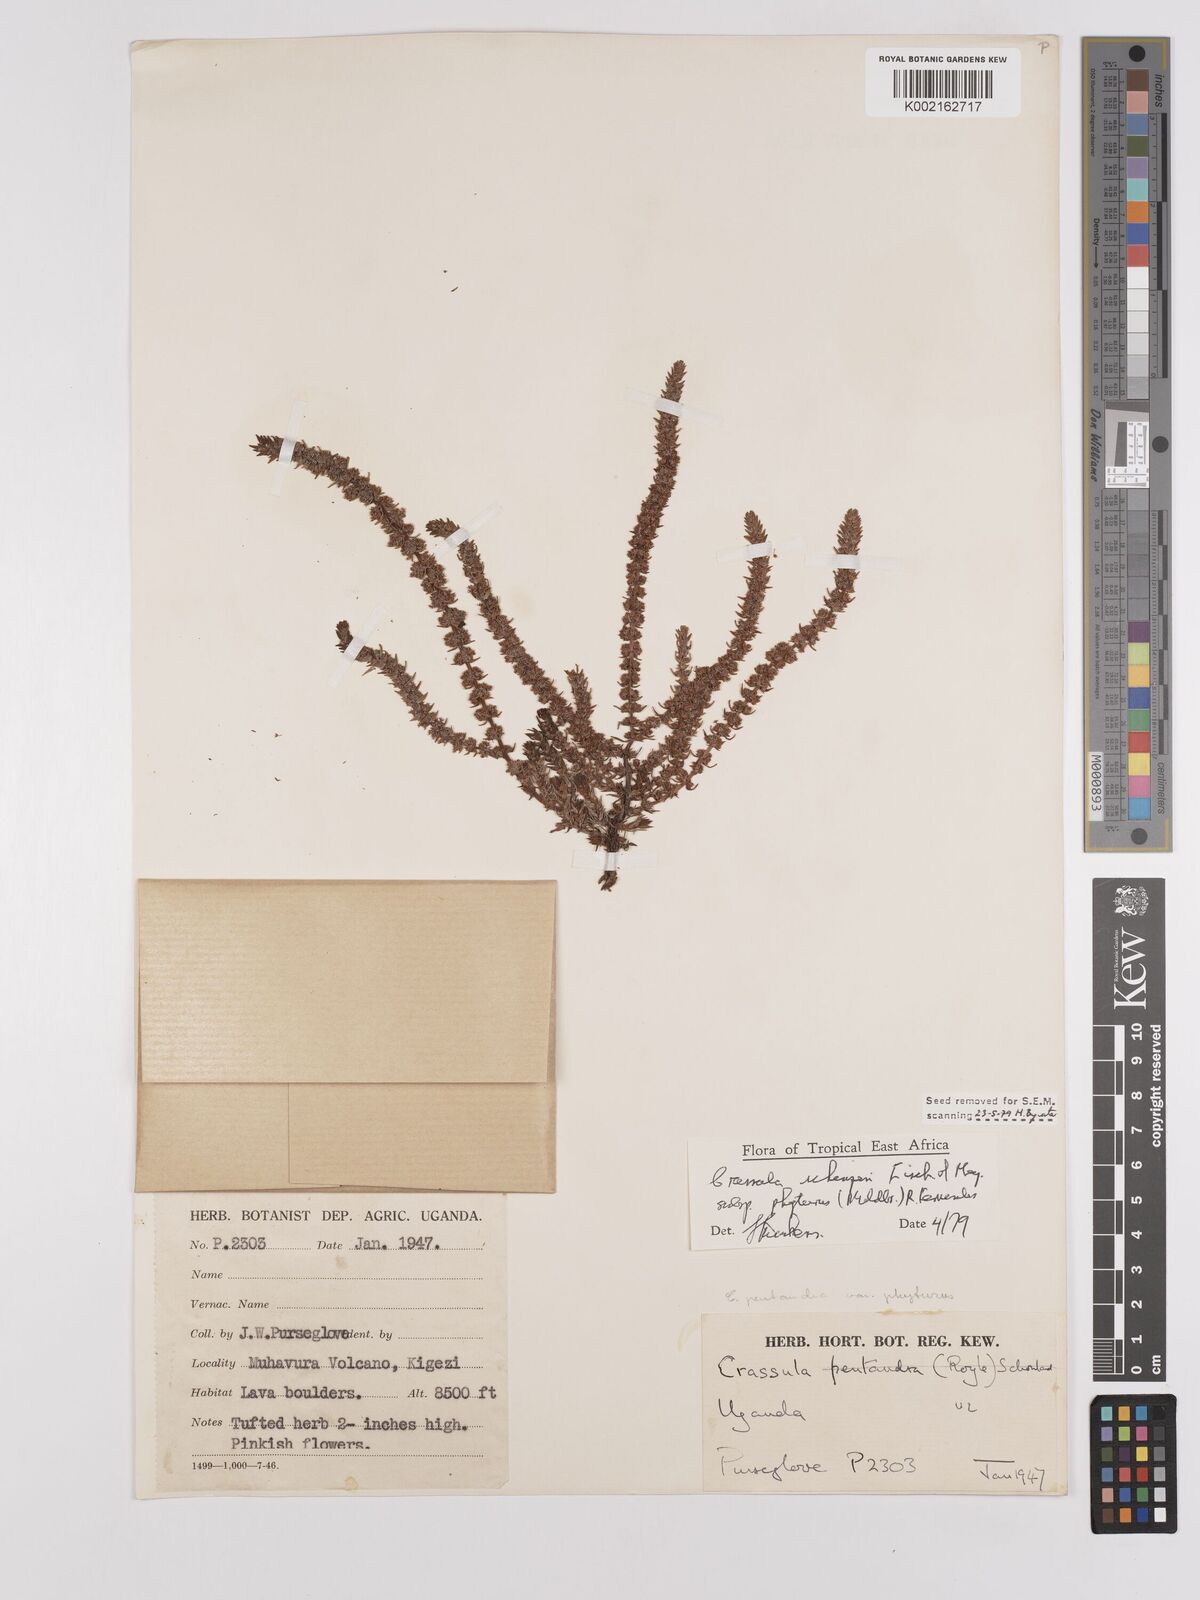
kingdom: Plantae
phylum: Tracheophyta
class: Magnoliopsida
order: Saxifragales
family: Crassulaceae
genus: Crassula
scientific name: Crassula schimperi
